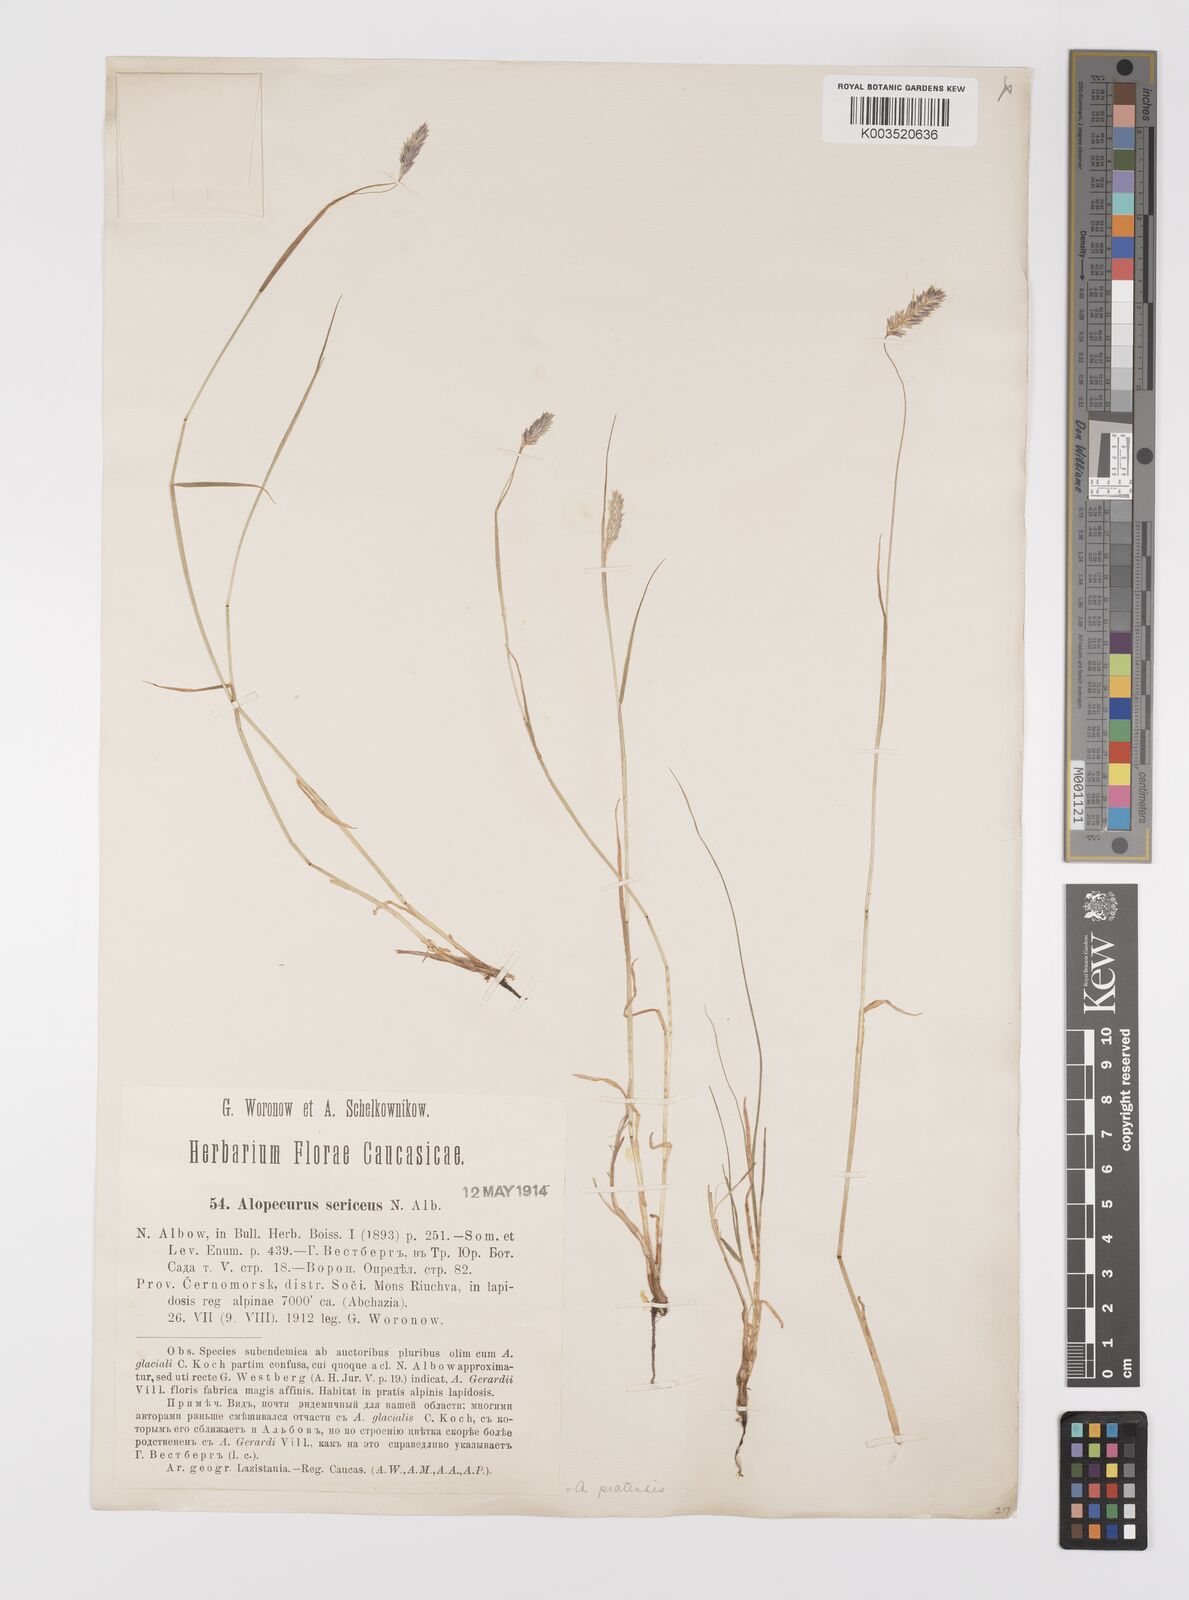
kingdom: Plantae
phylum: Tracheophyta
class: Liliopsida
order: Poales
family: Poaceae
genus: Alopecurus
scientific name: Alopecurus ponticus
